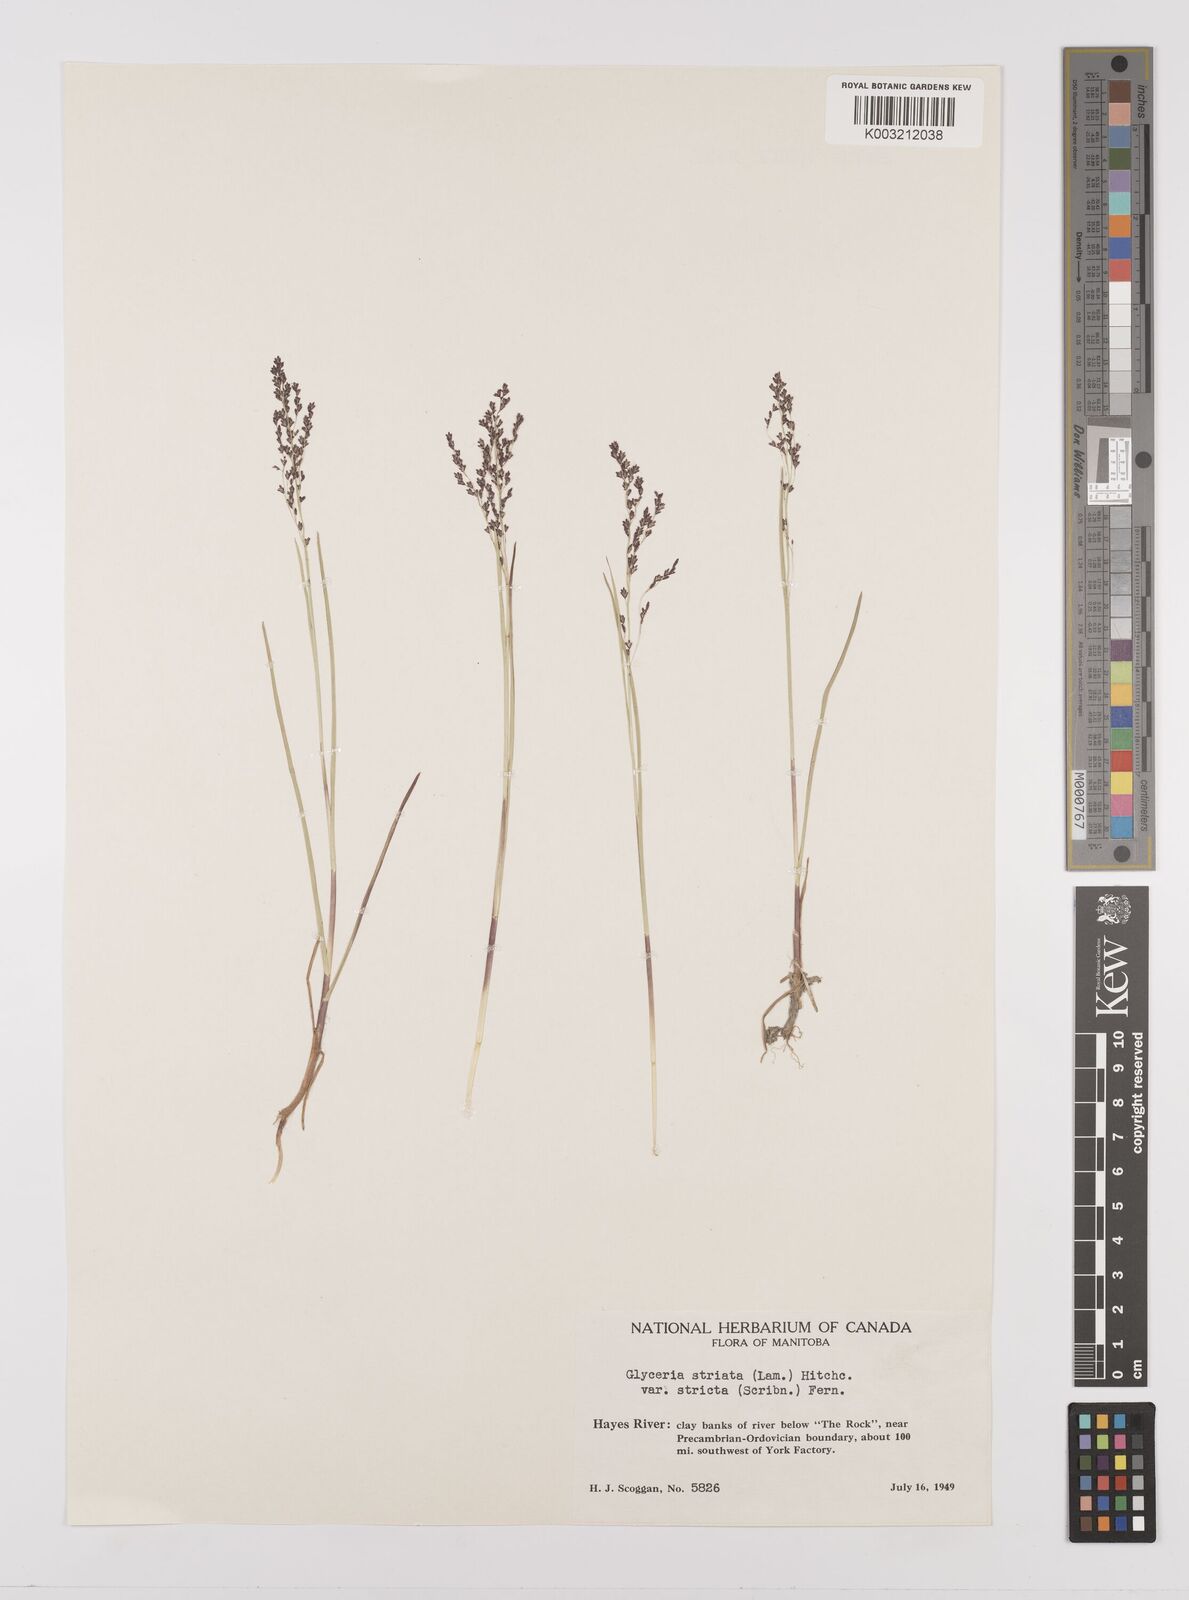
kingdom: Plantae
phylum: Tracheophyta
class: Liliopsida
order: Poales
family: Poaceae
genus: Glyceria
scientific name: Glyceria striata
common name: Fowl manna grass
